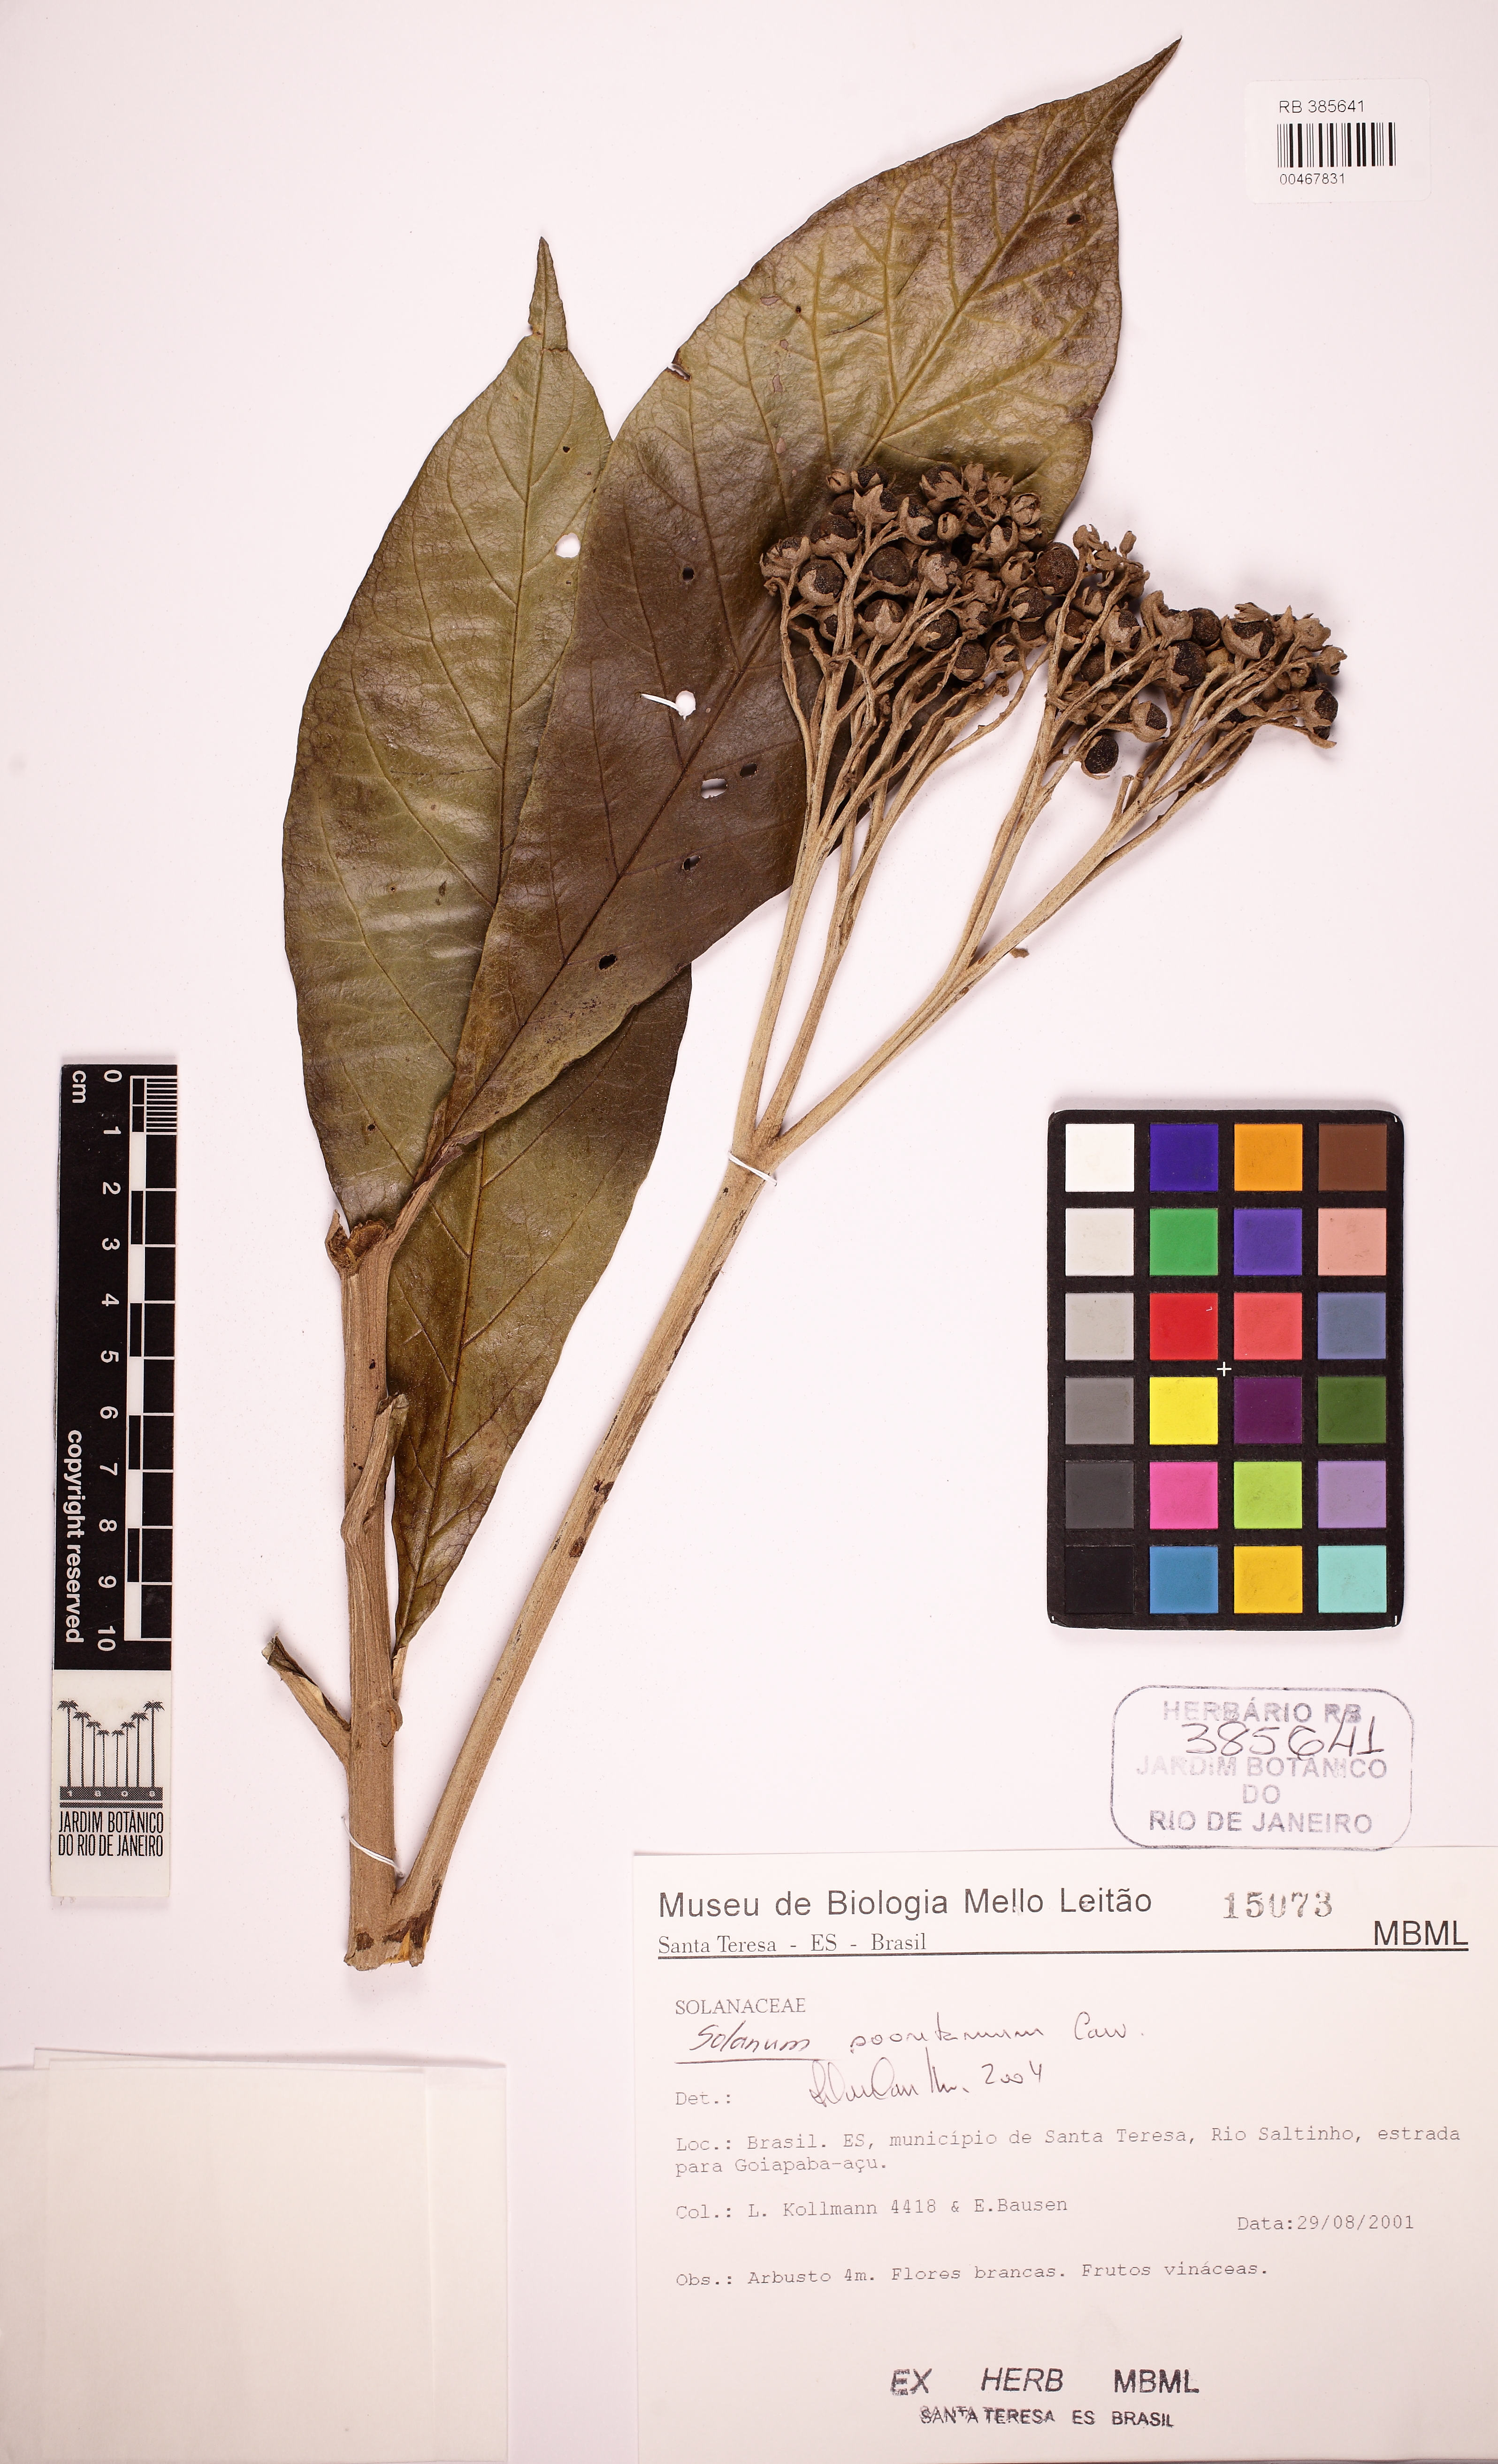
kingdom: Plantae
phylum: Tracheophyta
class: Magnoliopsida
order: Solanales
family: Solanaceae
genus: Solanum
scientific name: Solanum sooretamum
